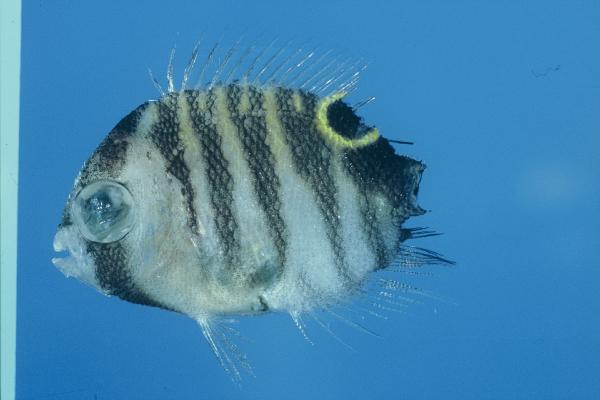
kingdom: Animalia
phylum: Chordata
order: Perciformes
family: Pomacanthidae
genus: Apolemichthys
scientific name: Apolemichthys kingi
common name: Tiger angelfish
